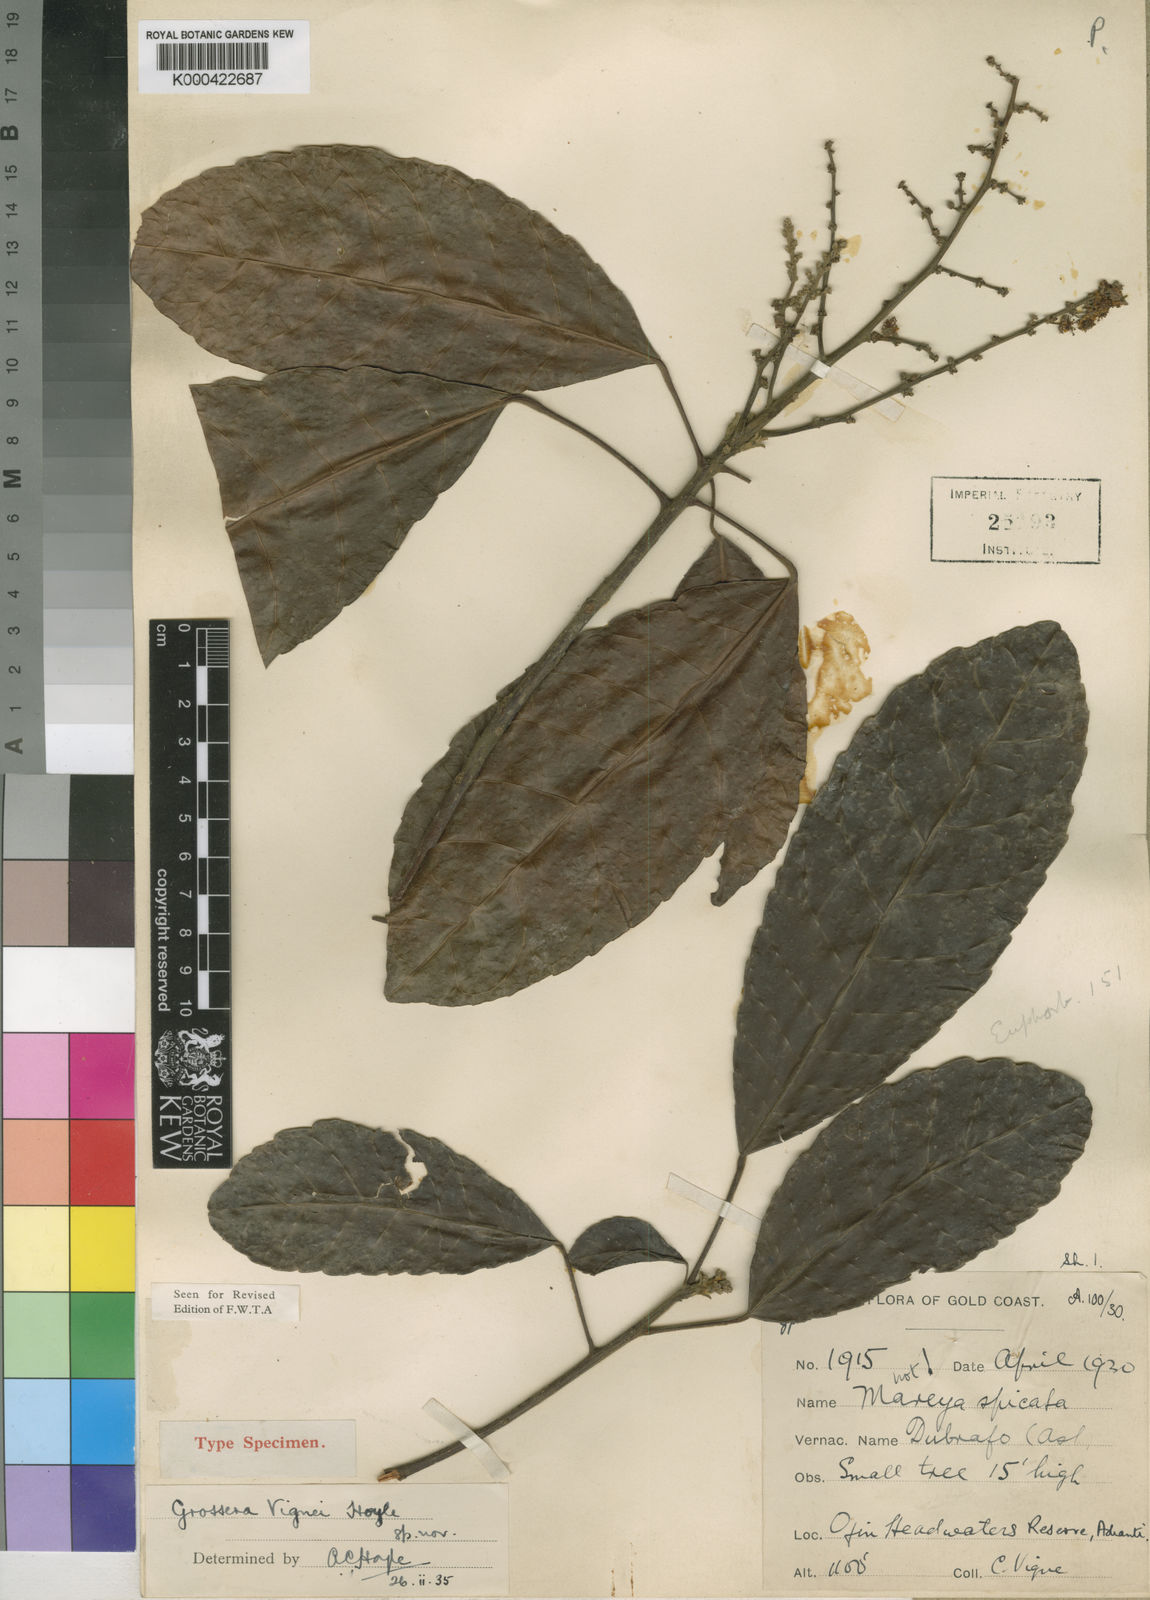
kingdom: Plantae
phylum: Tracheophyta
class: Magnoliopsida
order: Malpighiales
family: Euphorbiaceae
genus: Grossera
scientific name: Grossera vignei
